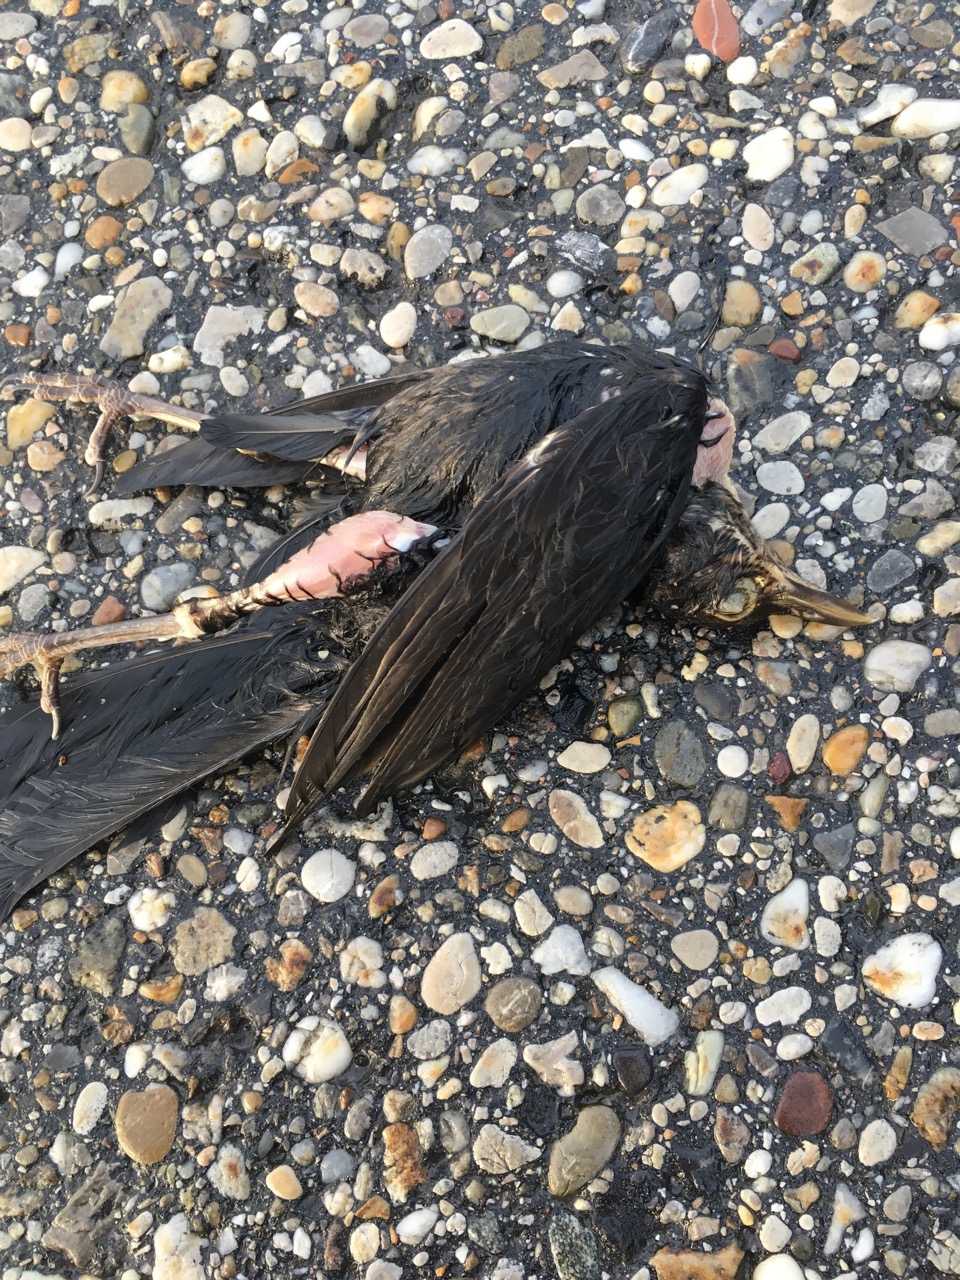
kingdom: Animalia
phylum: Chordata
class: Aves
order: Passeriformes
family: Turdidae
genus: Turdus
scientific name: Turdus merula
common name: Common blackbird
